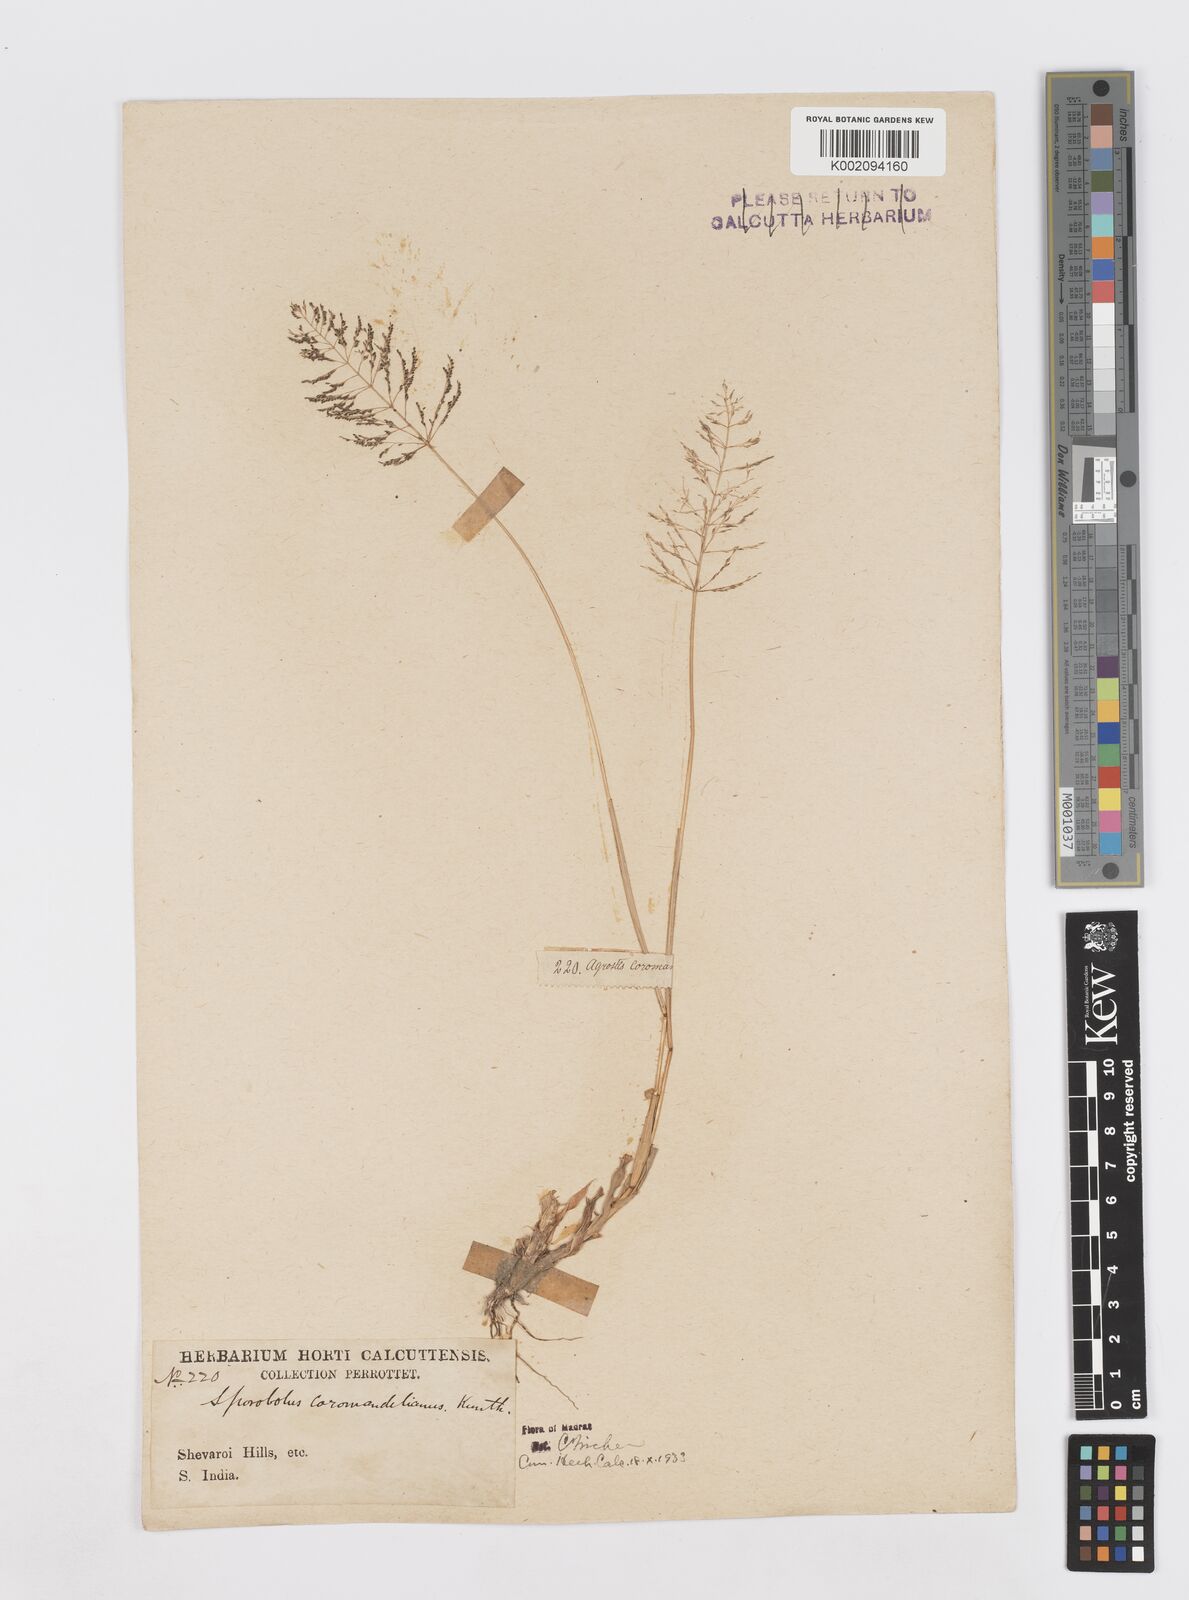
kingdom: Plantae
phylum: Tracheophyta
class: Liliopsida
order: Poales
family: Poaceae
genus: Sporobolus
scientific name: Sporobolus coromandelianus
